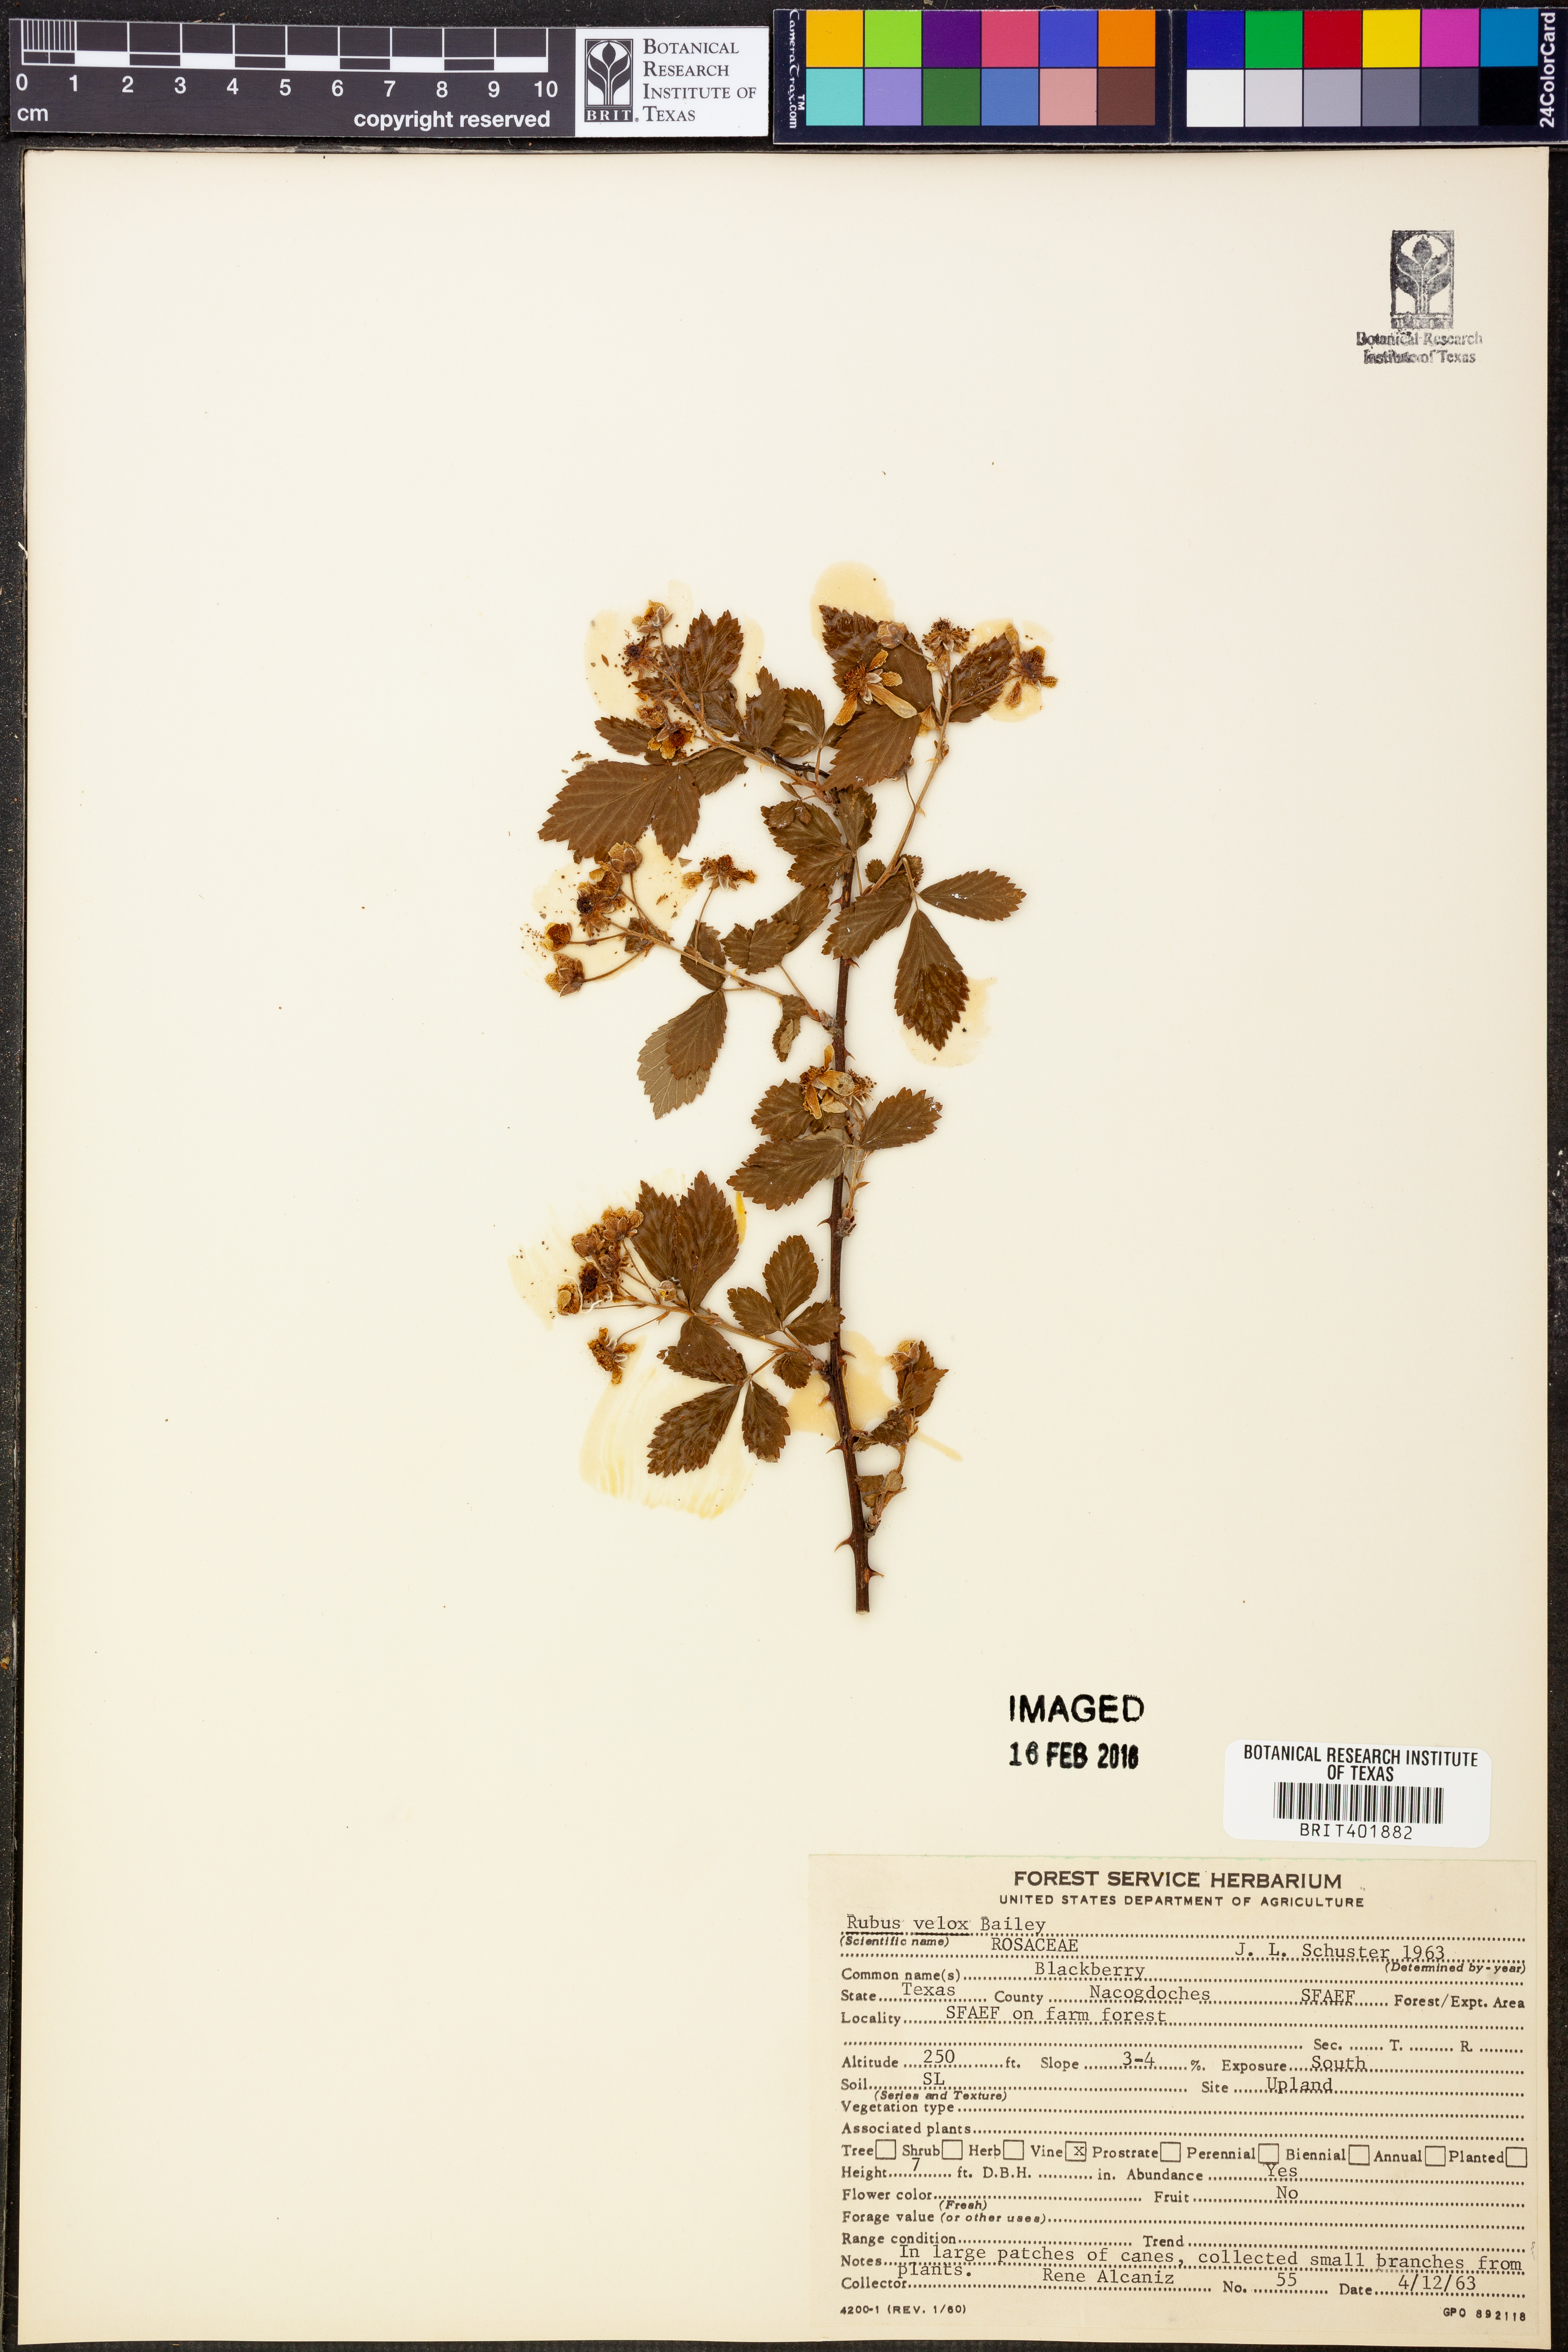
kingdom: Plantae
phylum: Tracheophyta
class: Magnoliopsida
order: Rosales
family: Rosaceae
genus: Rubus
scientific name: Rubus velox
